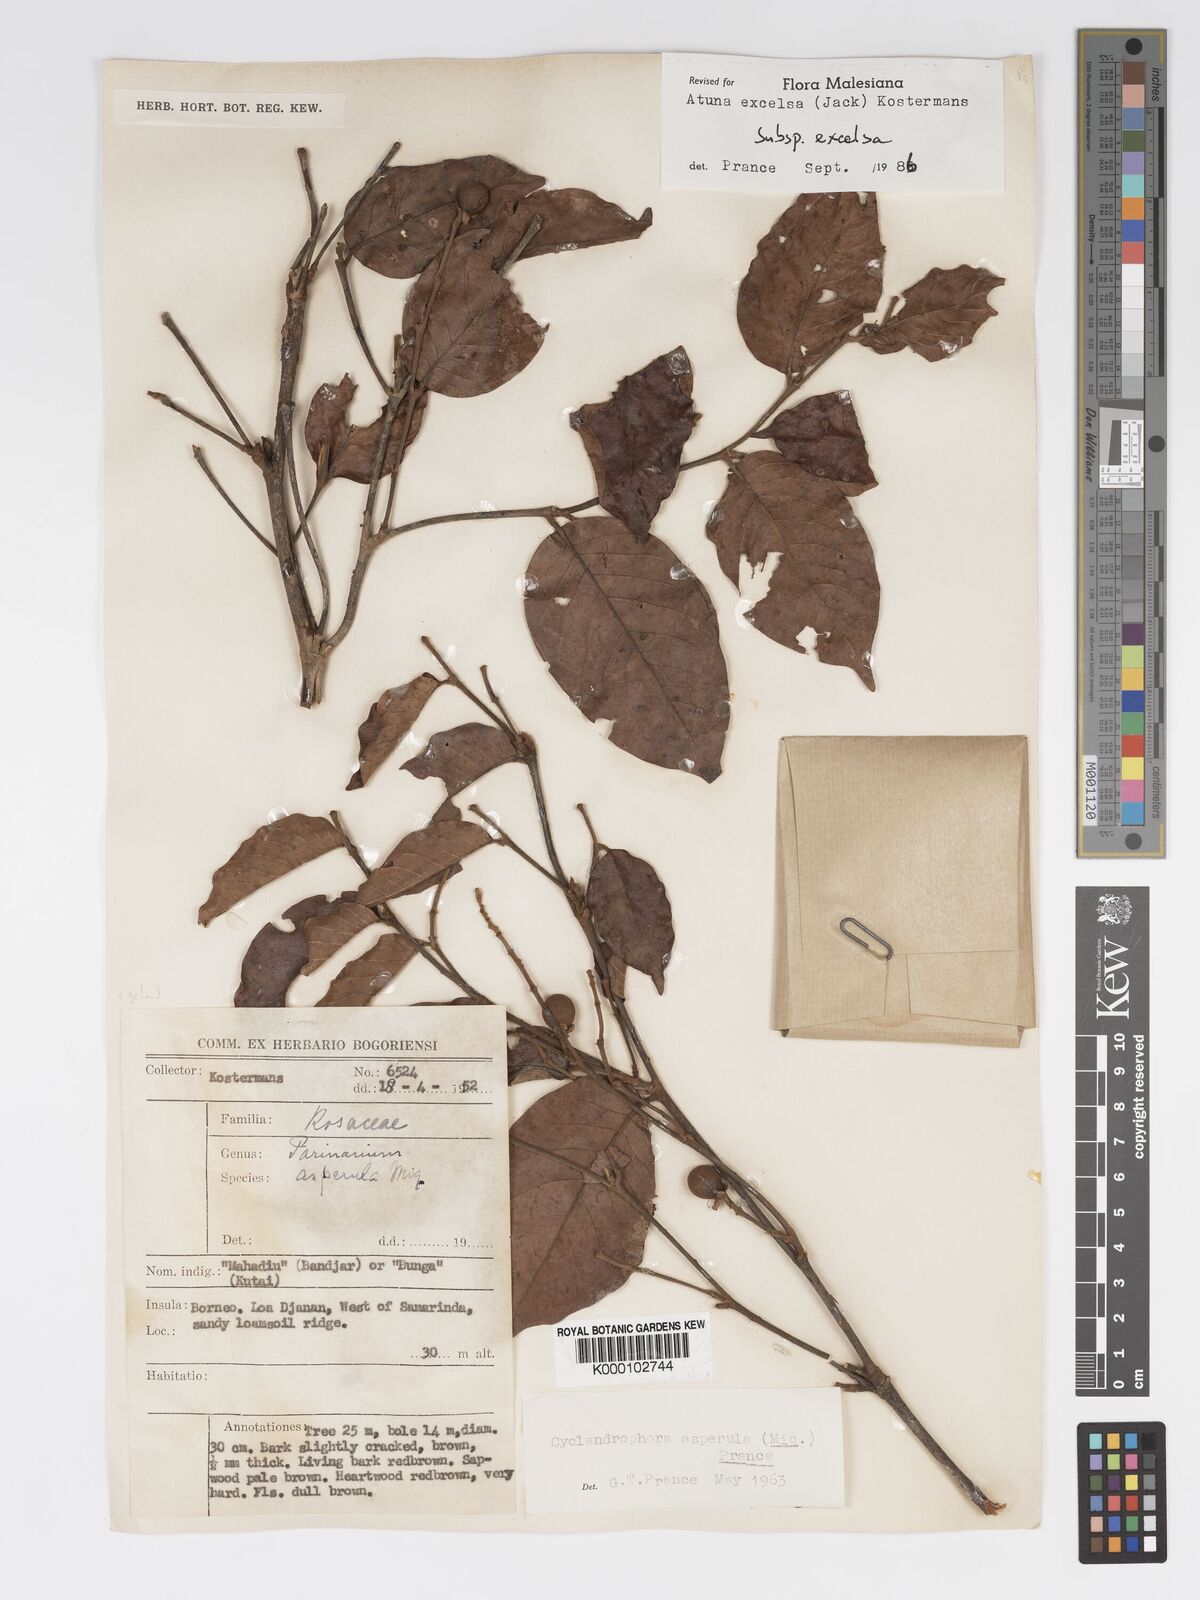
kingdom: Plantae
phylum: Tracheophyta
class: Magnoliopsida
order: Malpighiales
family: Chrysobalanaceae
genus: Atuna
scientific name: Atuna excelsa
